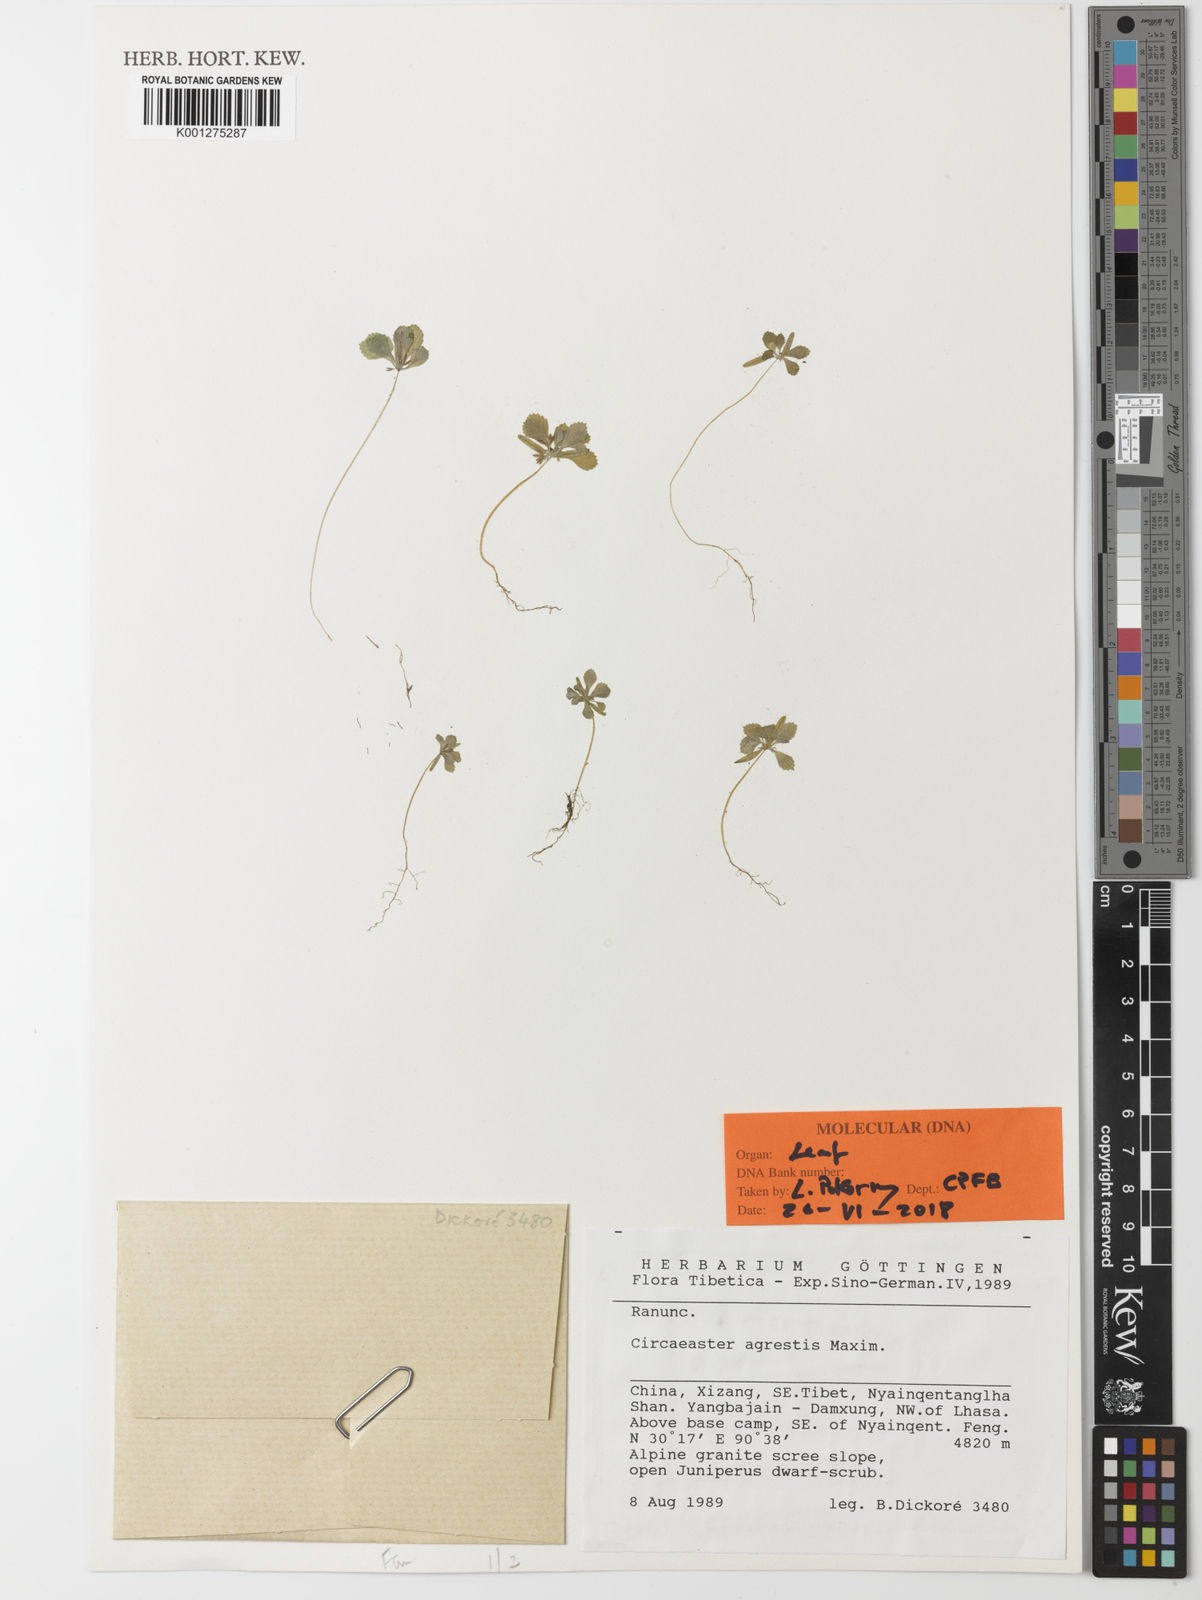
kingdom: Plantae
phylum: Tracheophyta
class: Magnoliopsida
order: Ranunculales
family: Circaeasteraceae
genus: Circaeaster
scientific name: Circaeaster agrestis
